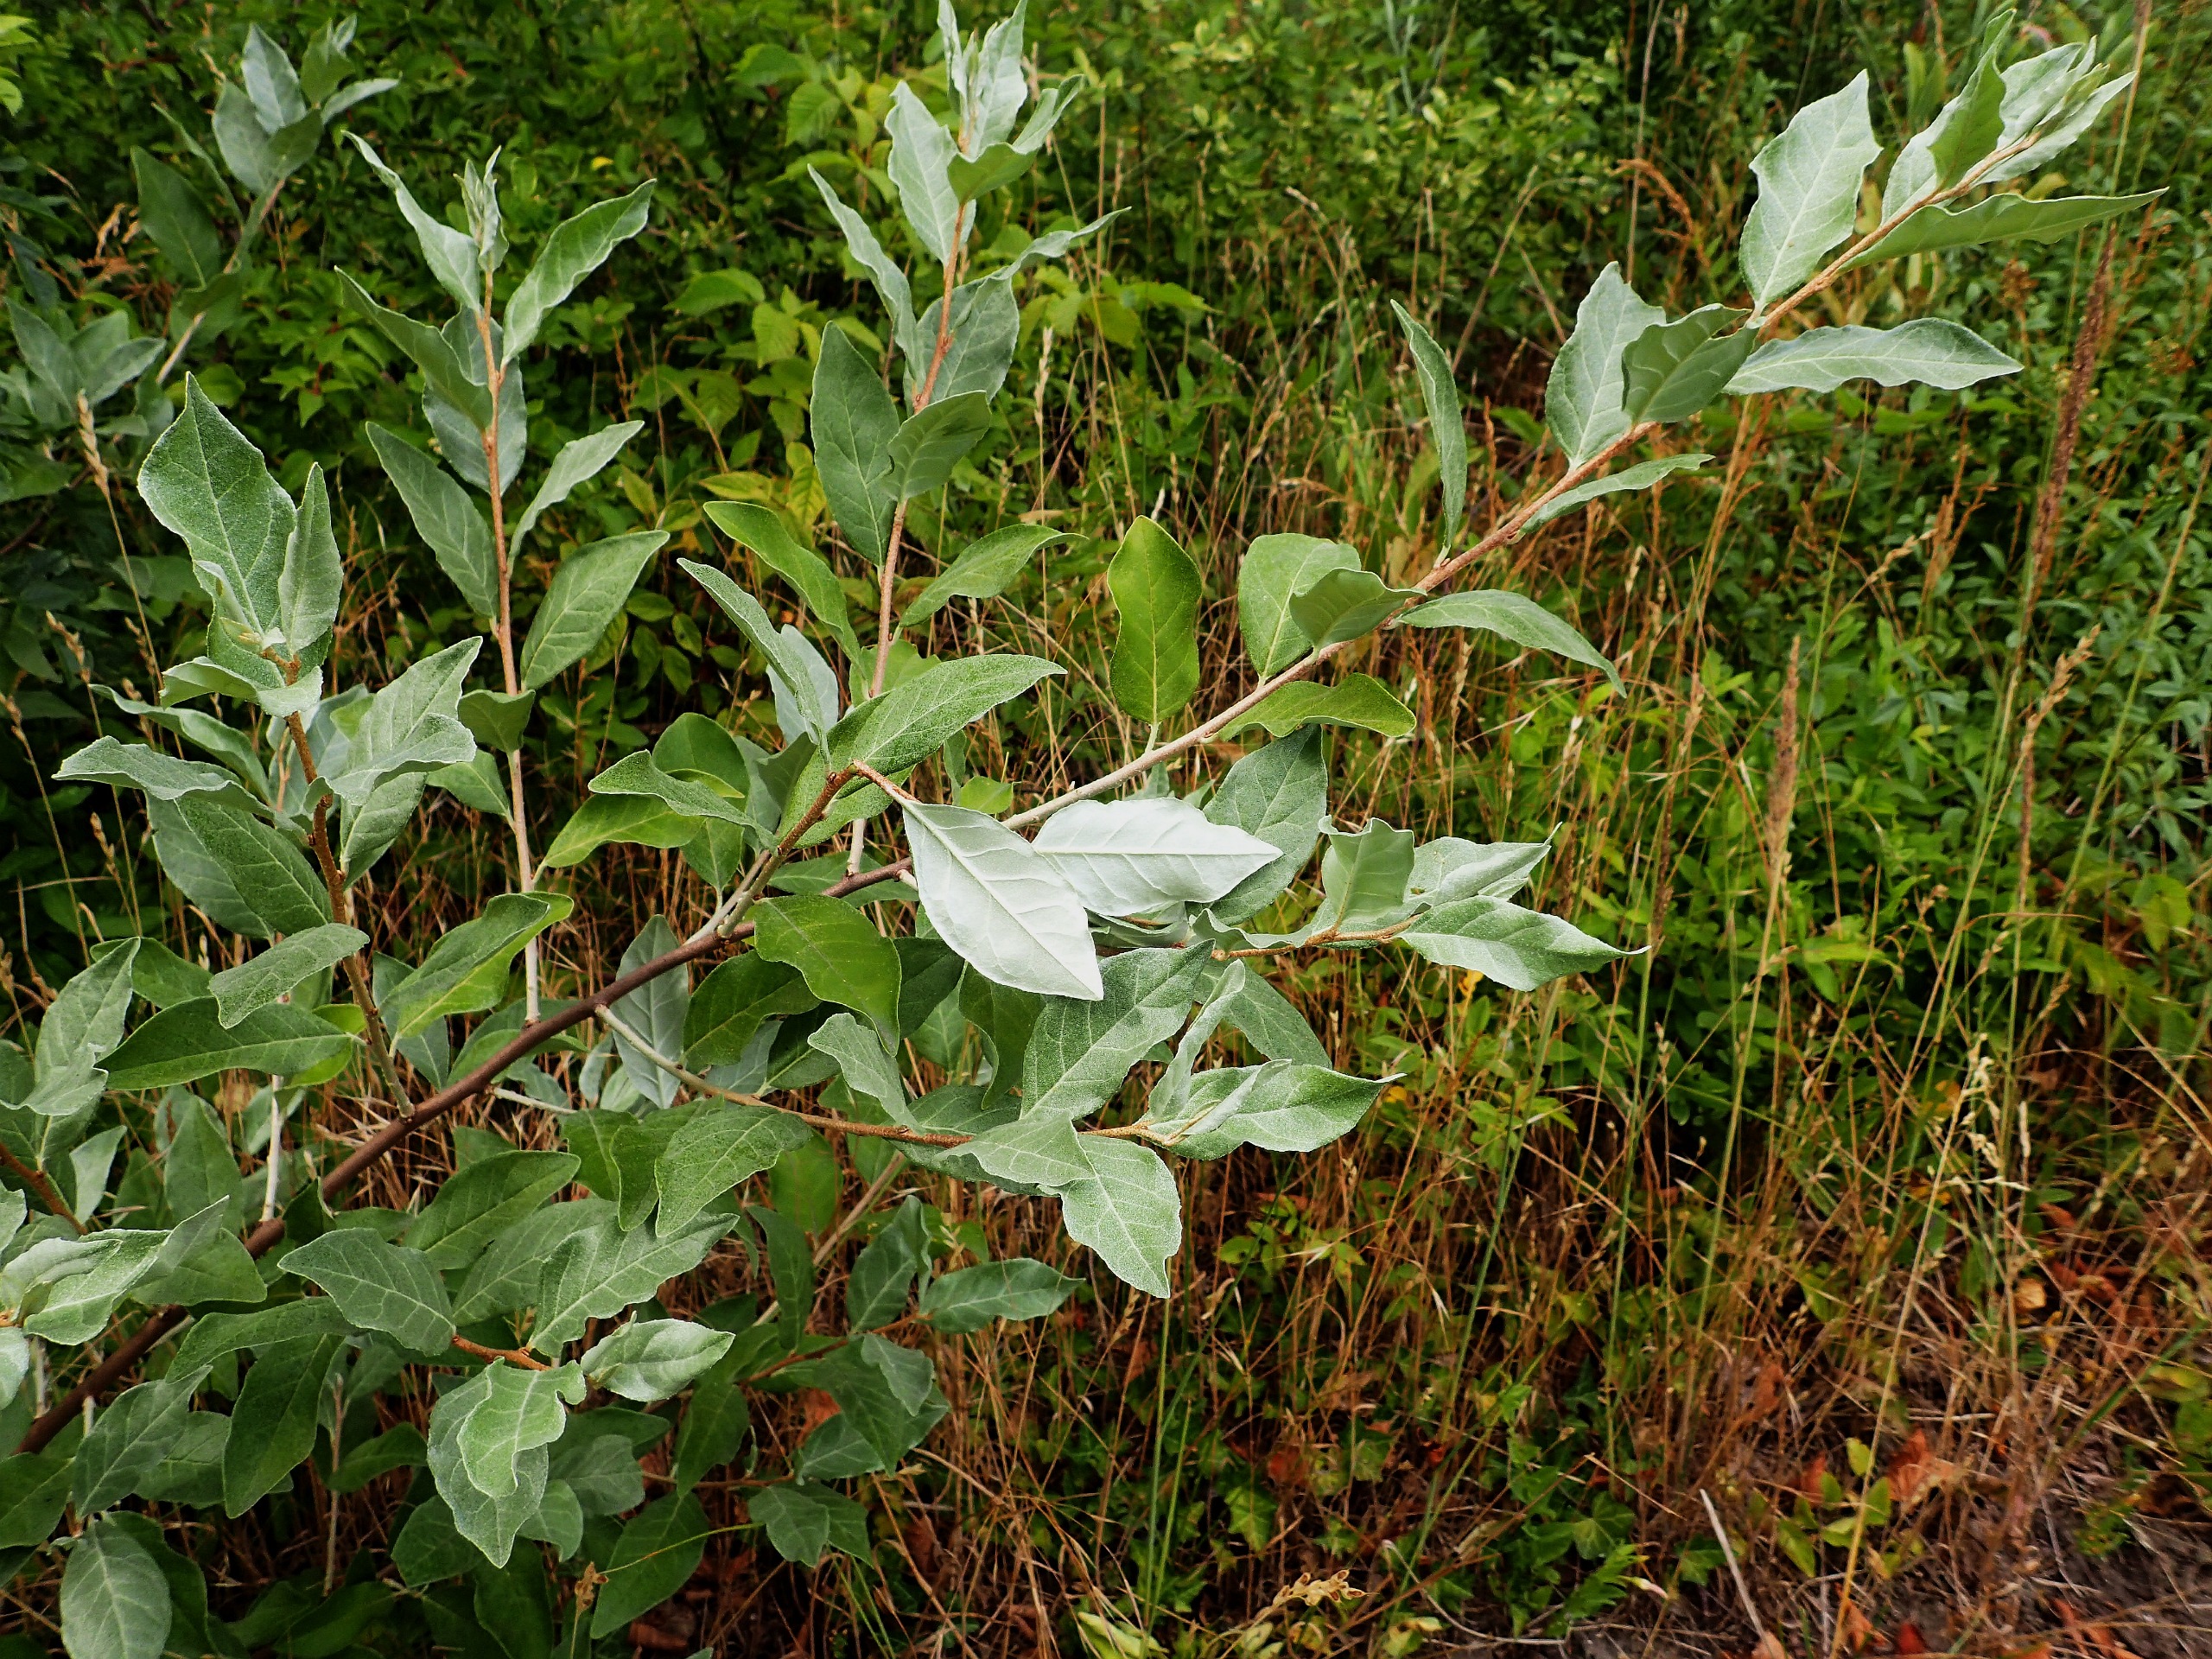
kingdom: Plantae
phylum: Tracheophyta
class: Magnoliopsida
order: Rosales
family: Elaeagnaceae
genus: Elaeagnus
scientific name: Elaeagnus submacrophylla
